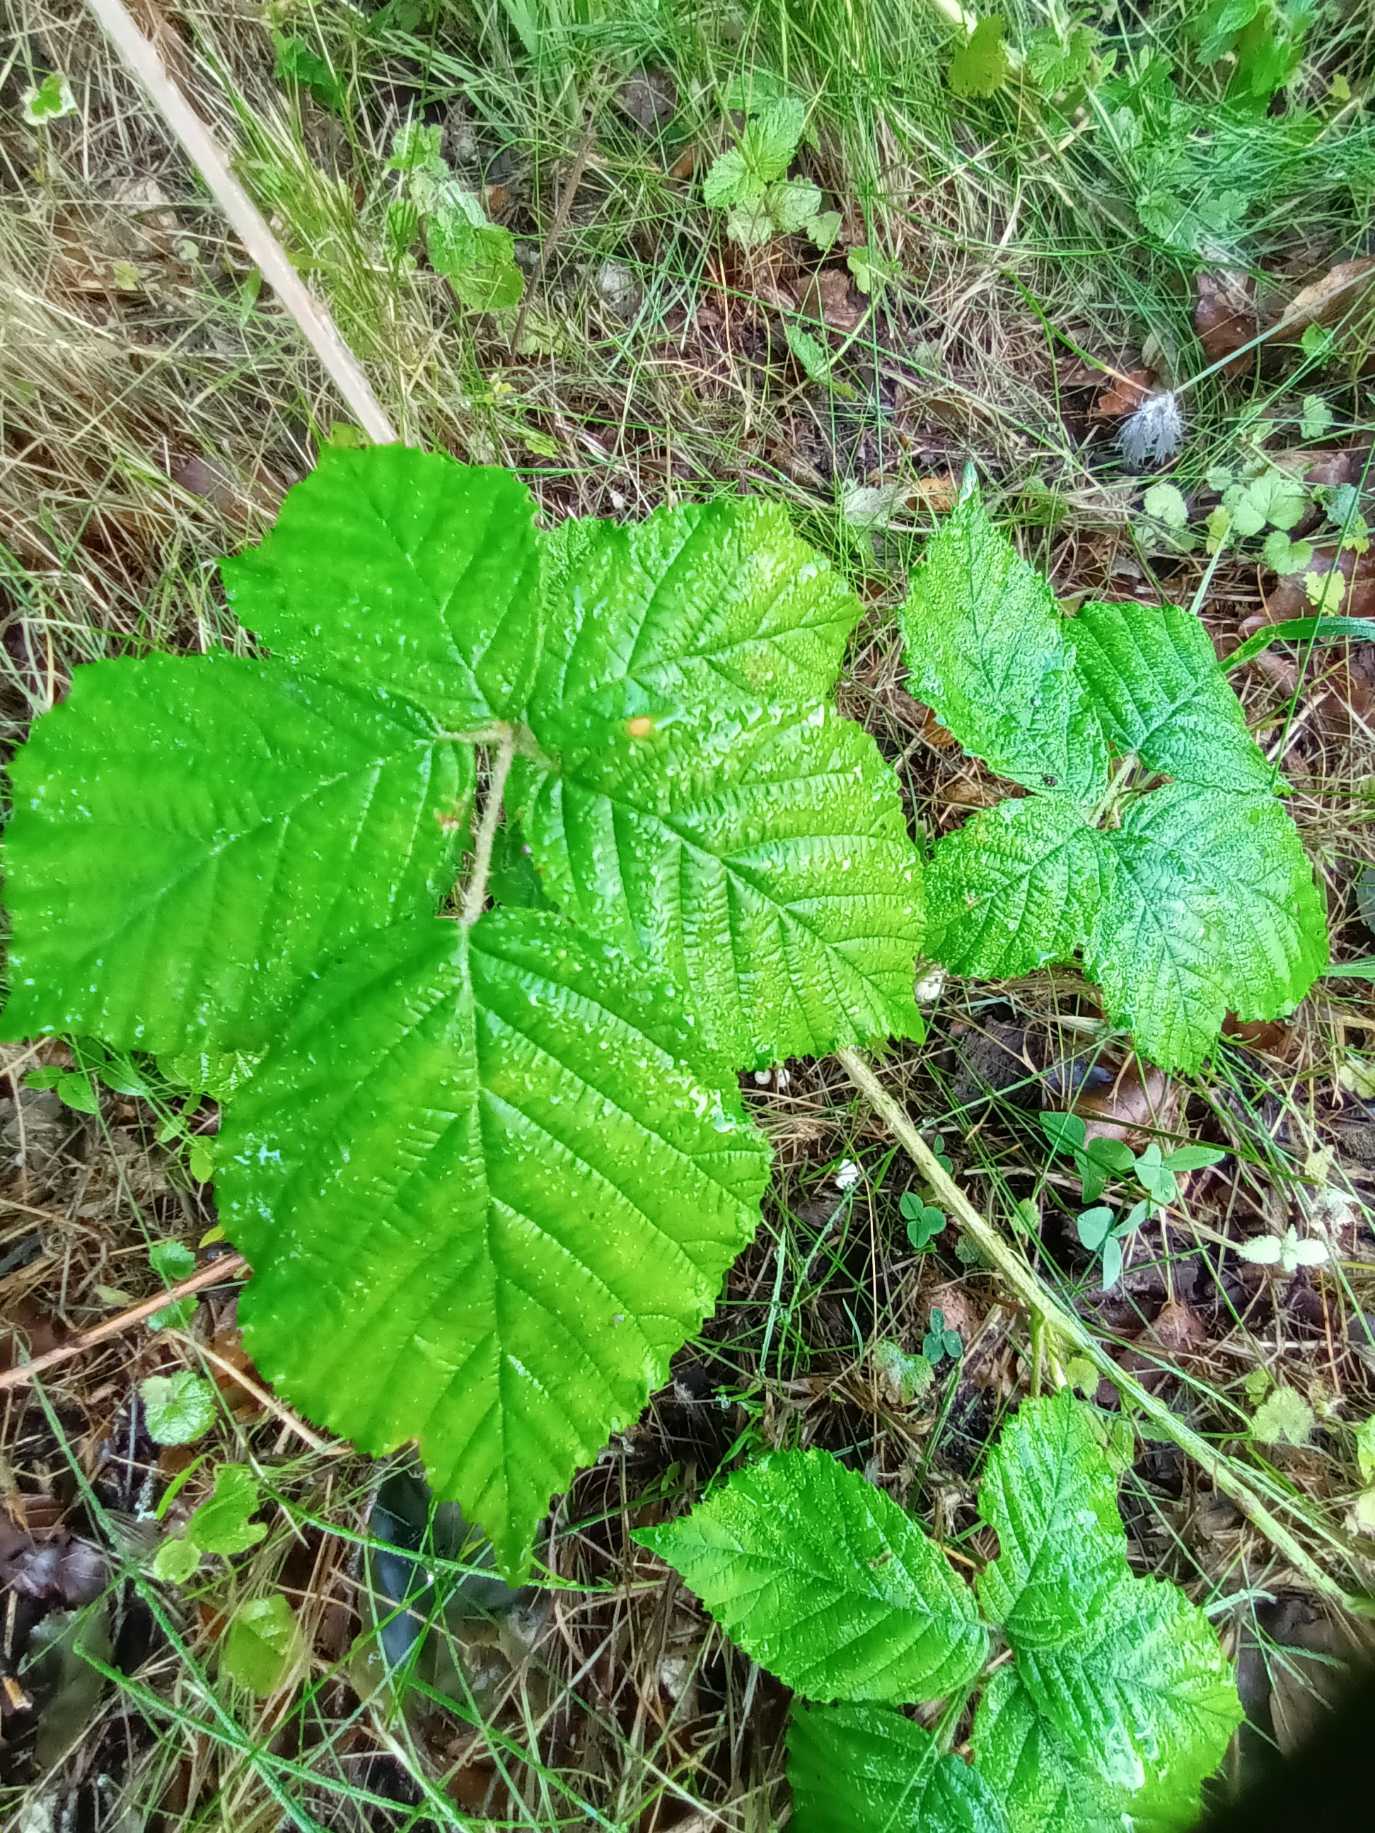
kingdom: Plantae
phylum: Tracheophyta
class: Magnoliopsida
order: Rosales
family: Rosaceae
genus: Rubus
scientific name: Rubus decurrentispinus
